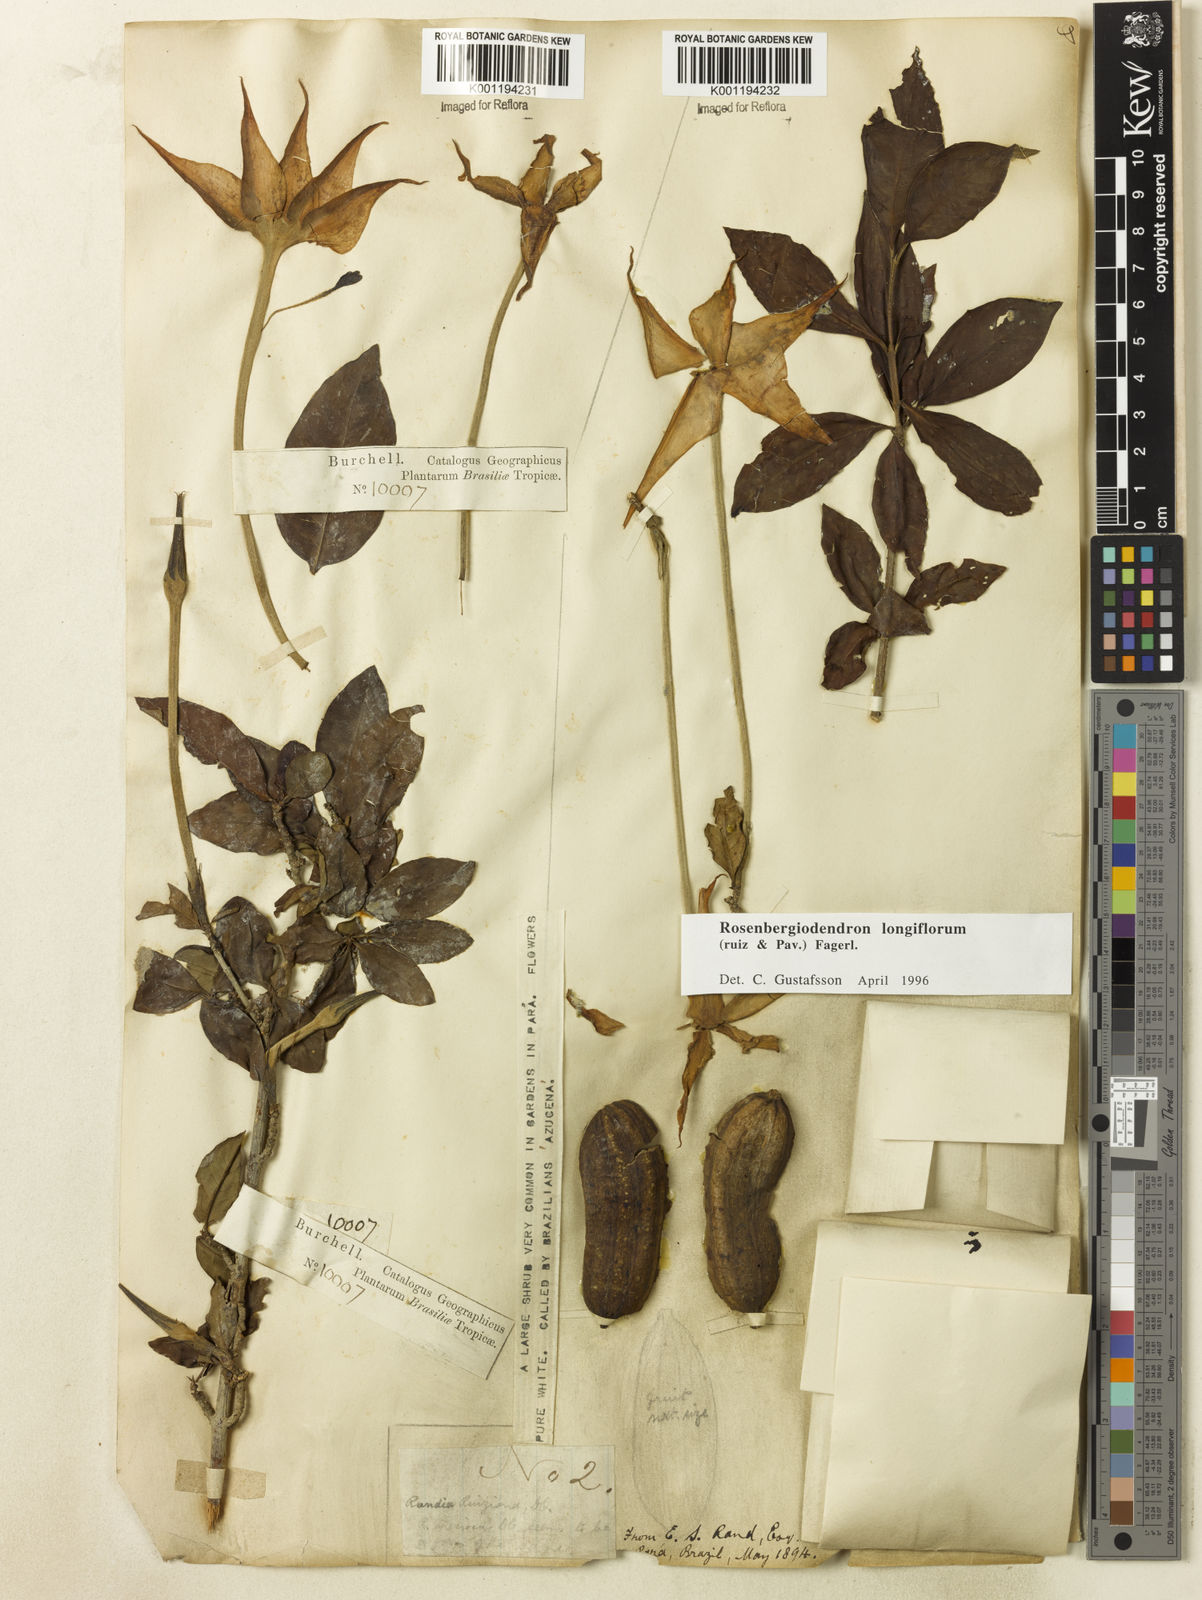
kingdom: Plantae
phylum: Tracheophyta
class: Magnoliopsida
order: Gentianales
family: Rubiaceae
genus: Rosenbergiodendron
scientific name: Rosenbergiodendron longiflorum
